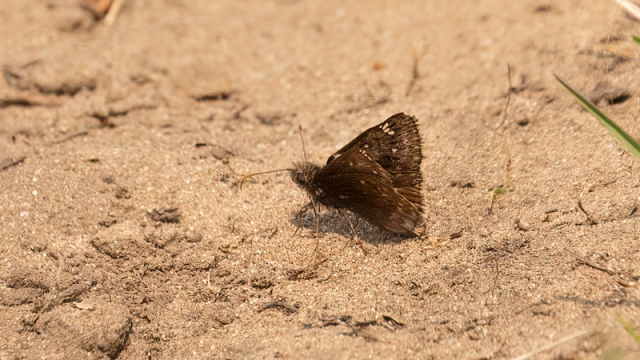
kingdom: Animalia
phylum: Arthropoda
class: Insecta
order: Lepidoptera
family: Hesperiidae
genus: Gesta
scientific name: Gesta
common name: Juvenal's Duskywing
